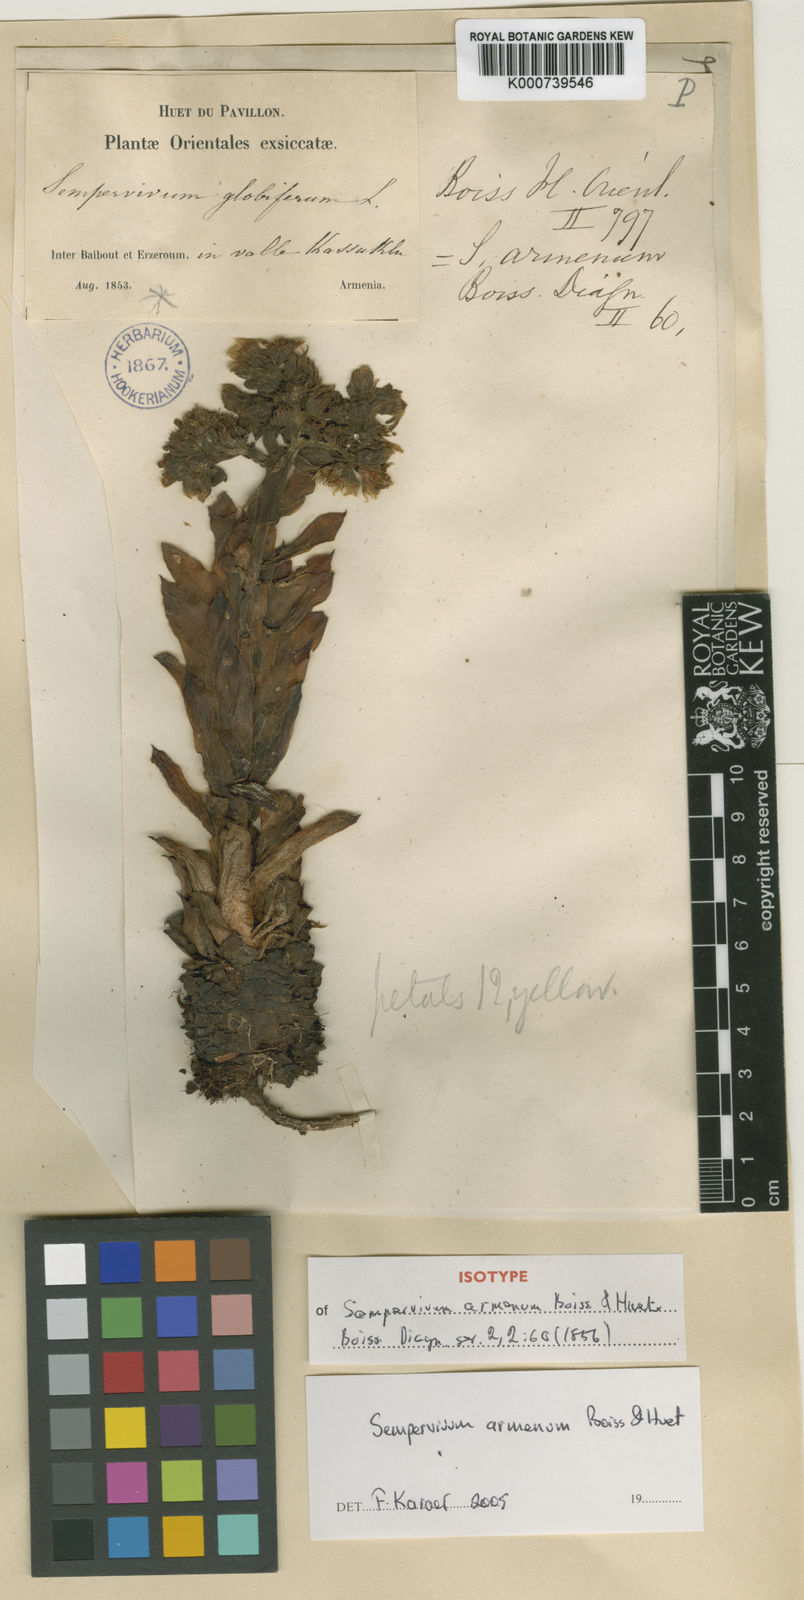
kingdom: Plantae
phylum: Tracheophyta
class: Magnoliopsida
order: Saxifragales
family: Crassulaceae
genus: Sempervivum
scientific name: Sempervivum armenum
